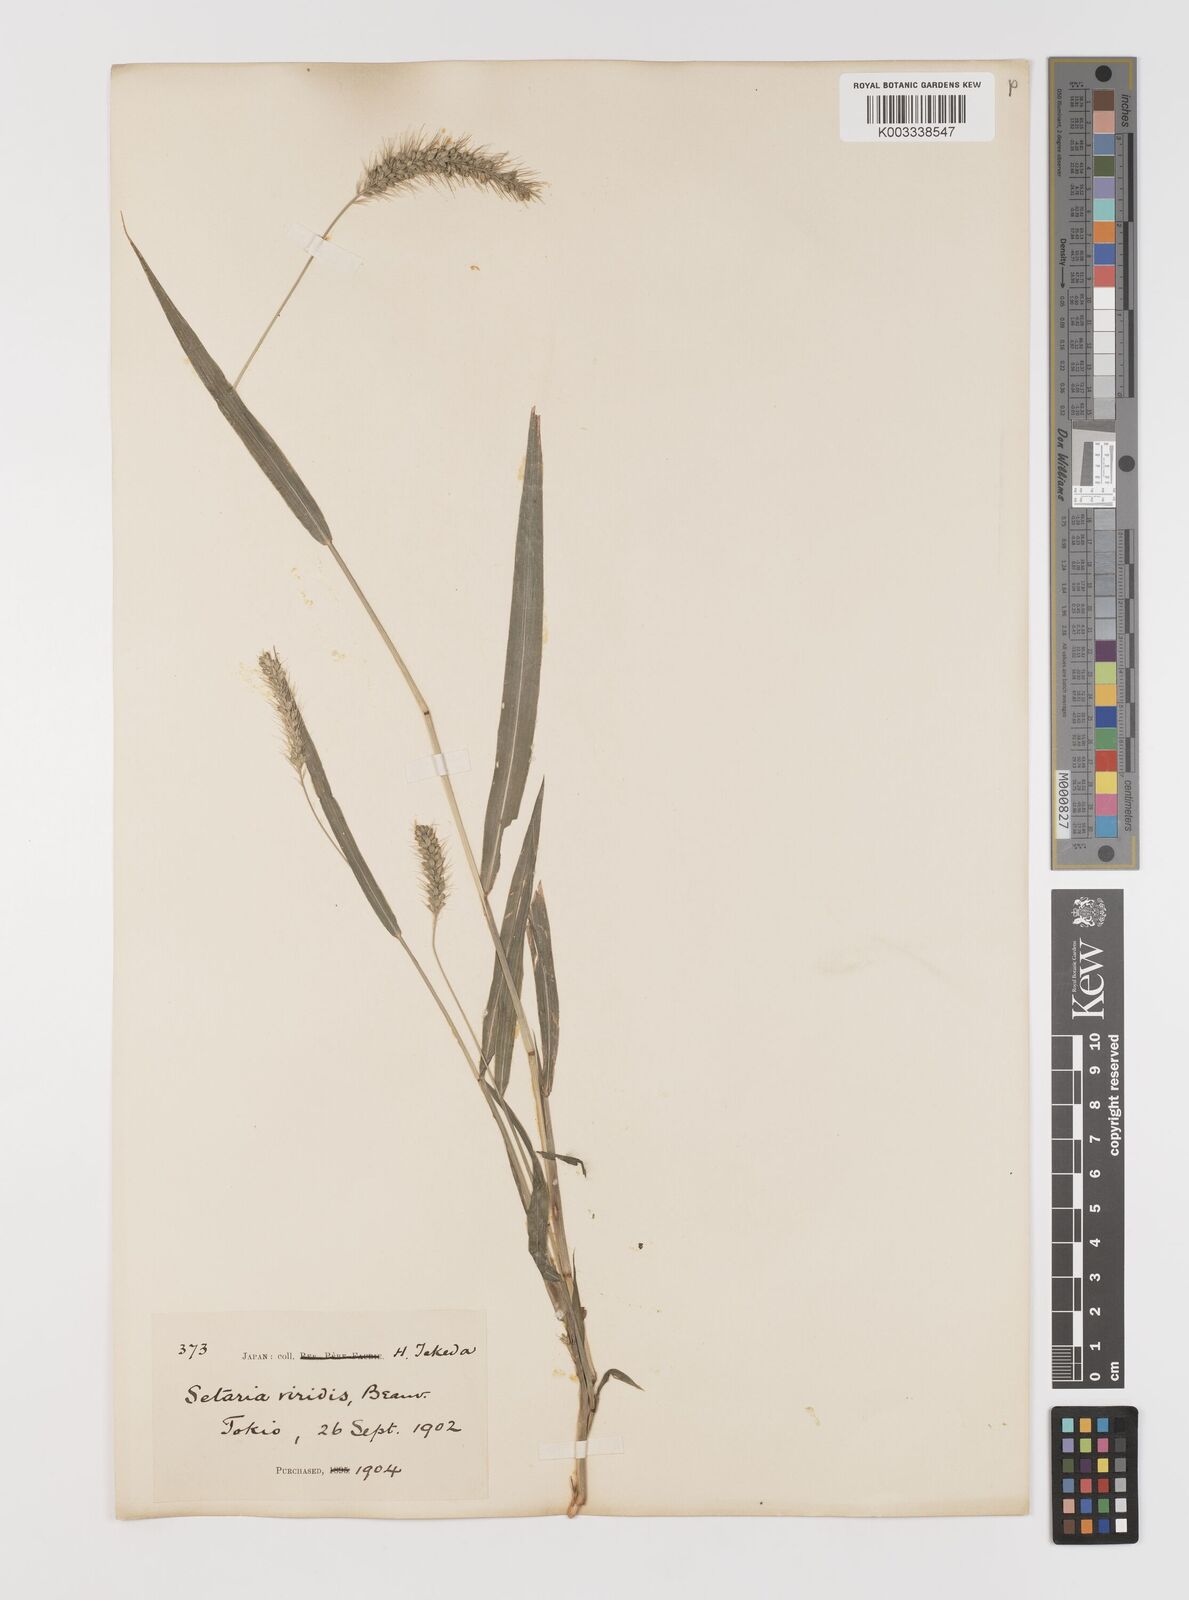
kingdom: Plantae
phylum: Tracheophyta
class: Liliopsida
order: Poales
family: Poaceae
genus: Setaria
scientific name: Setaria faberi
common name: Nodding bristle-grass
